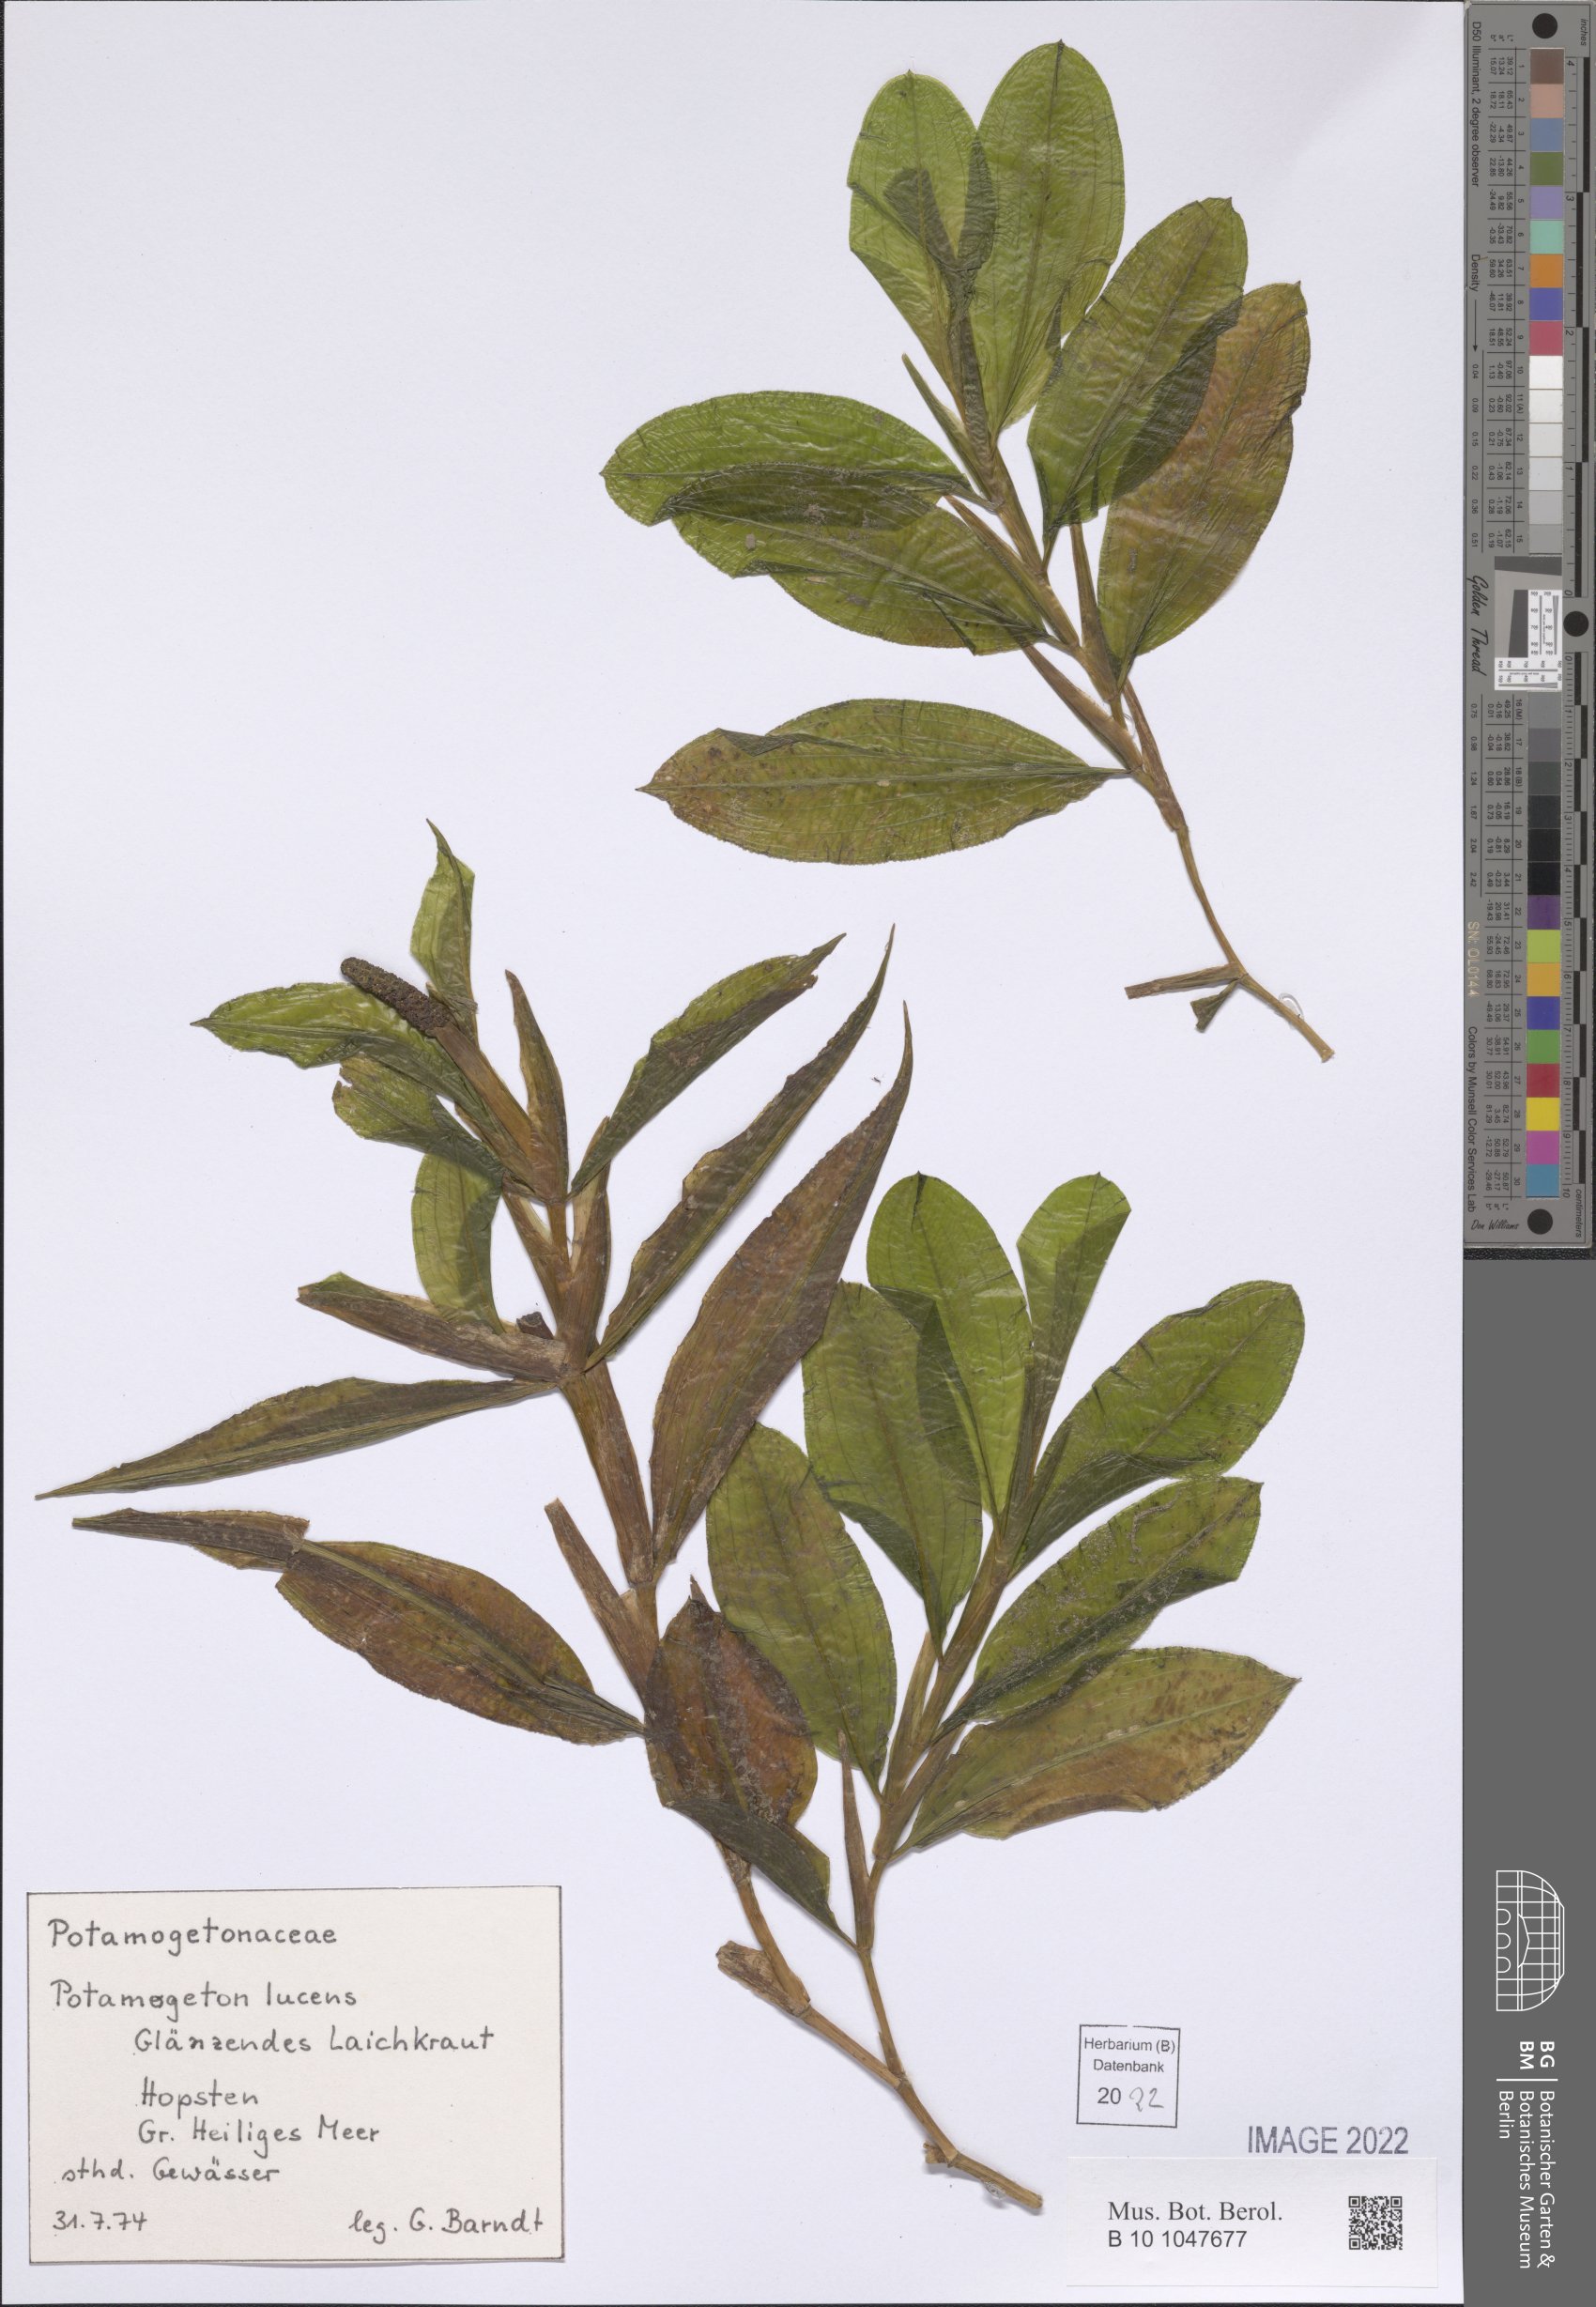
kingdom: Plantae
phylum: Tracheophyta
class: Liliopsida
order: Alismatales
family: Potamogetonaceae
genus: Potamogeton
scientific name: Potamogeton lucens
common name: Shining pondweed
